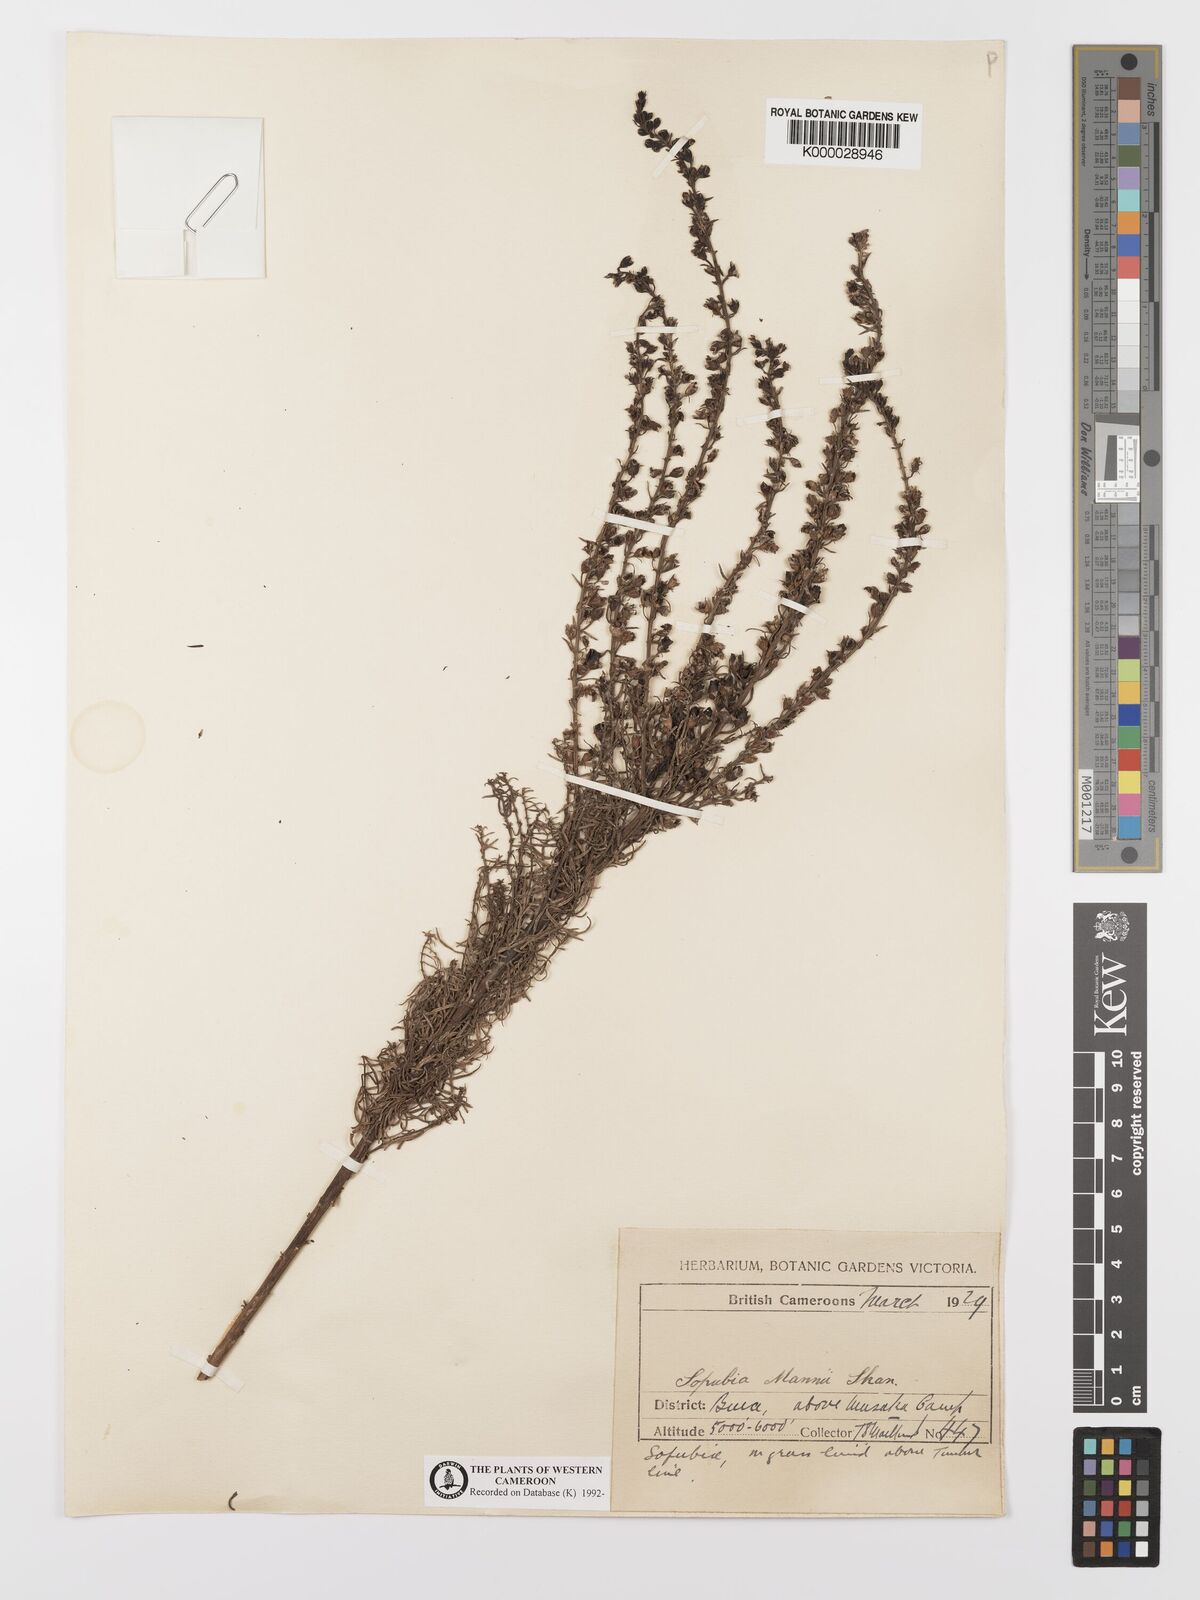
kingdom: Plantae
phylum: Tracheophyta
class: Magnoliopsida
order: Lamiales
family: Orobanchaceae
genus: Sopubia
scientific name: Sopubia mannii
